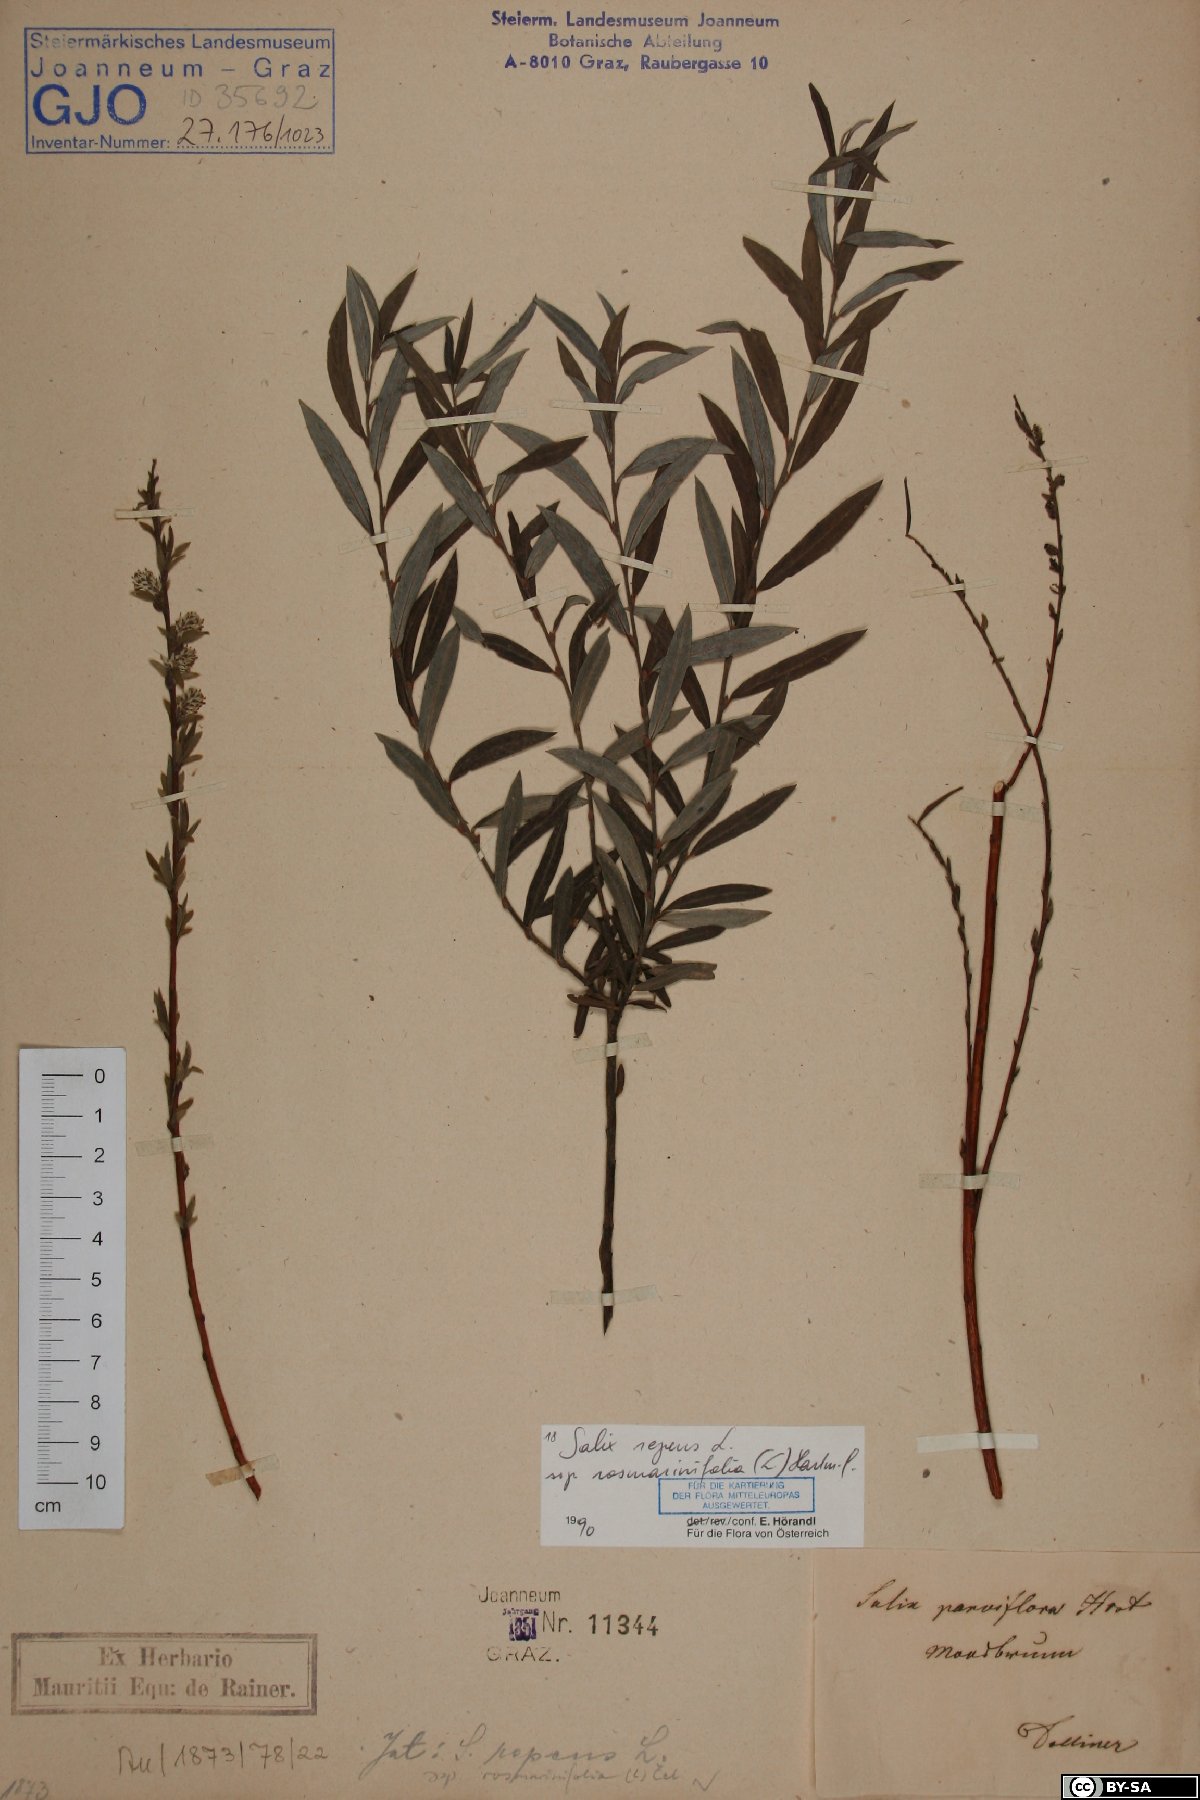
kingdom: Plantae
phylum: Tracheophyta
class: Magnoliopsida
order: Malpighiales
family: Salicaceae
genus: Salix
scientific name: Salix repens
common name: Creeping willow
